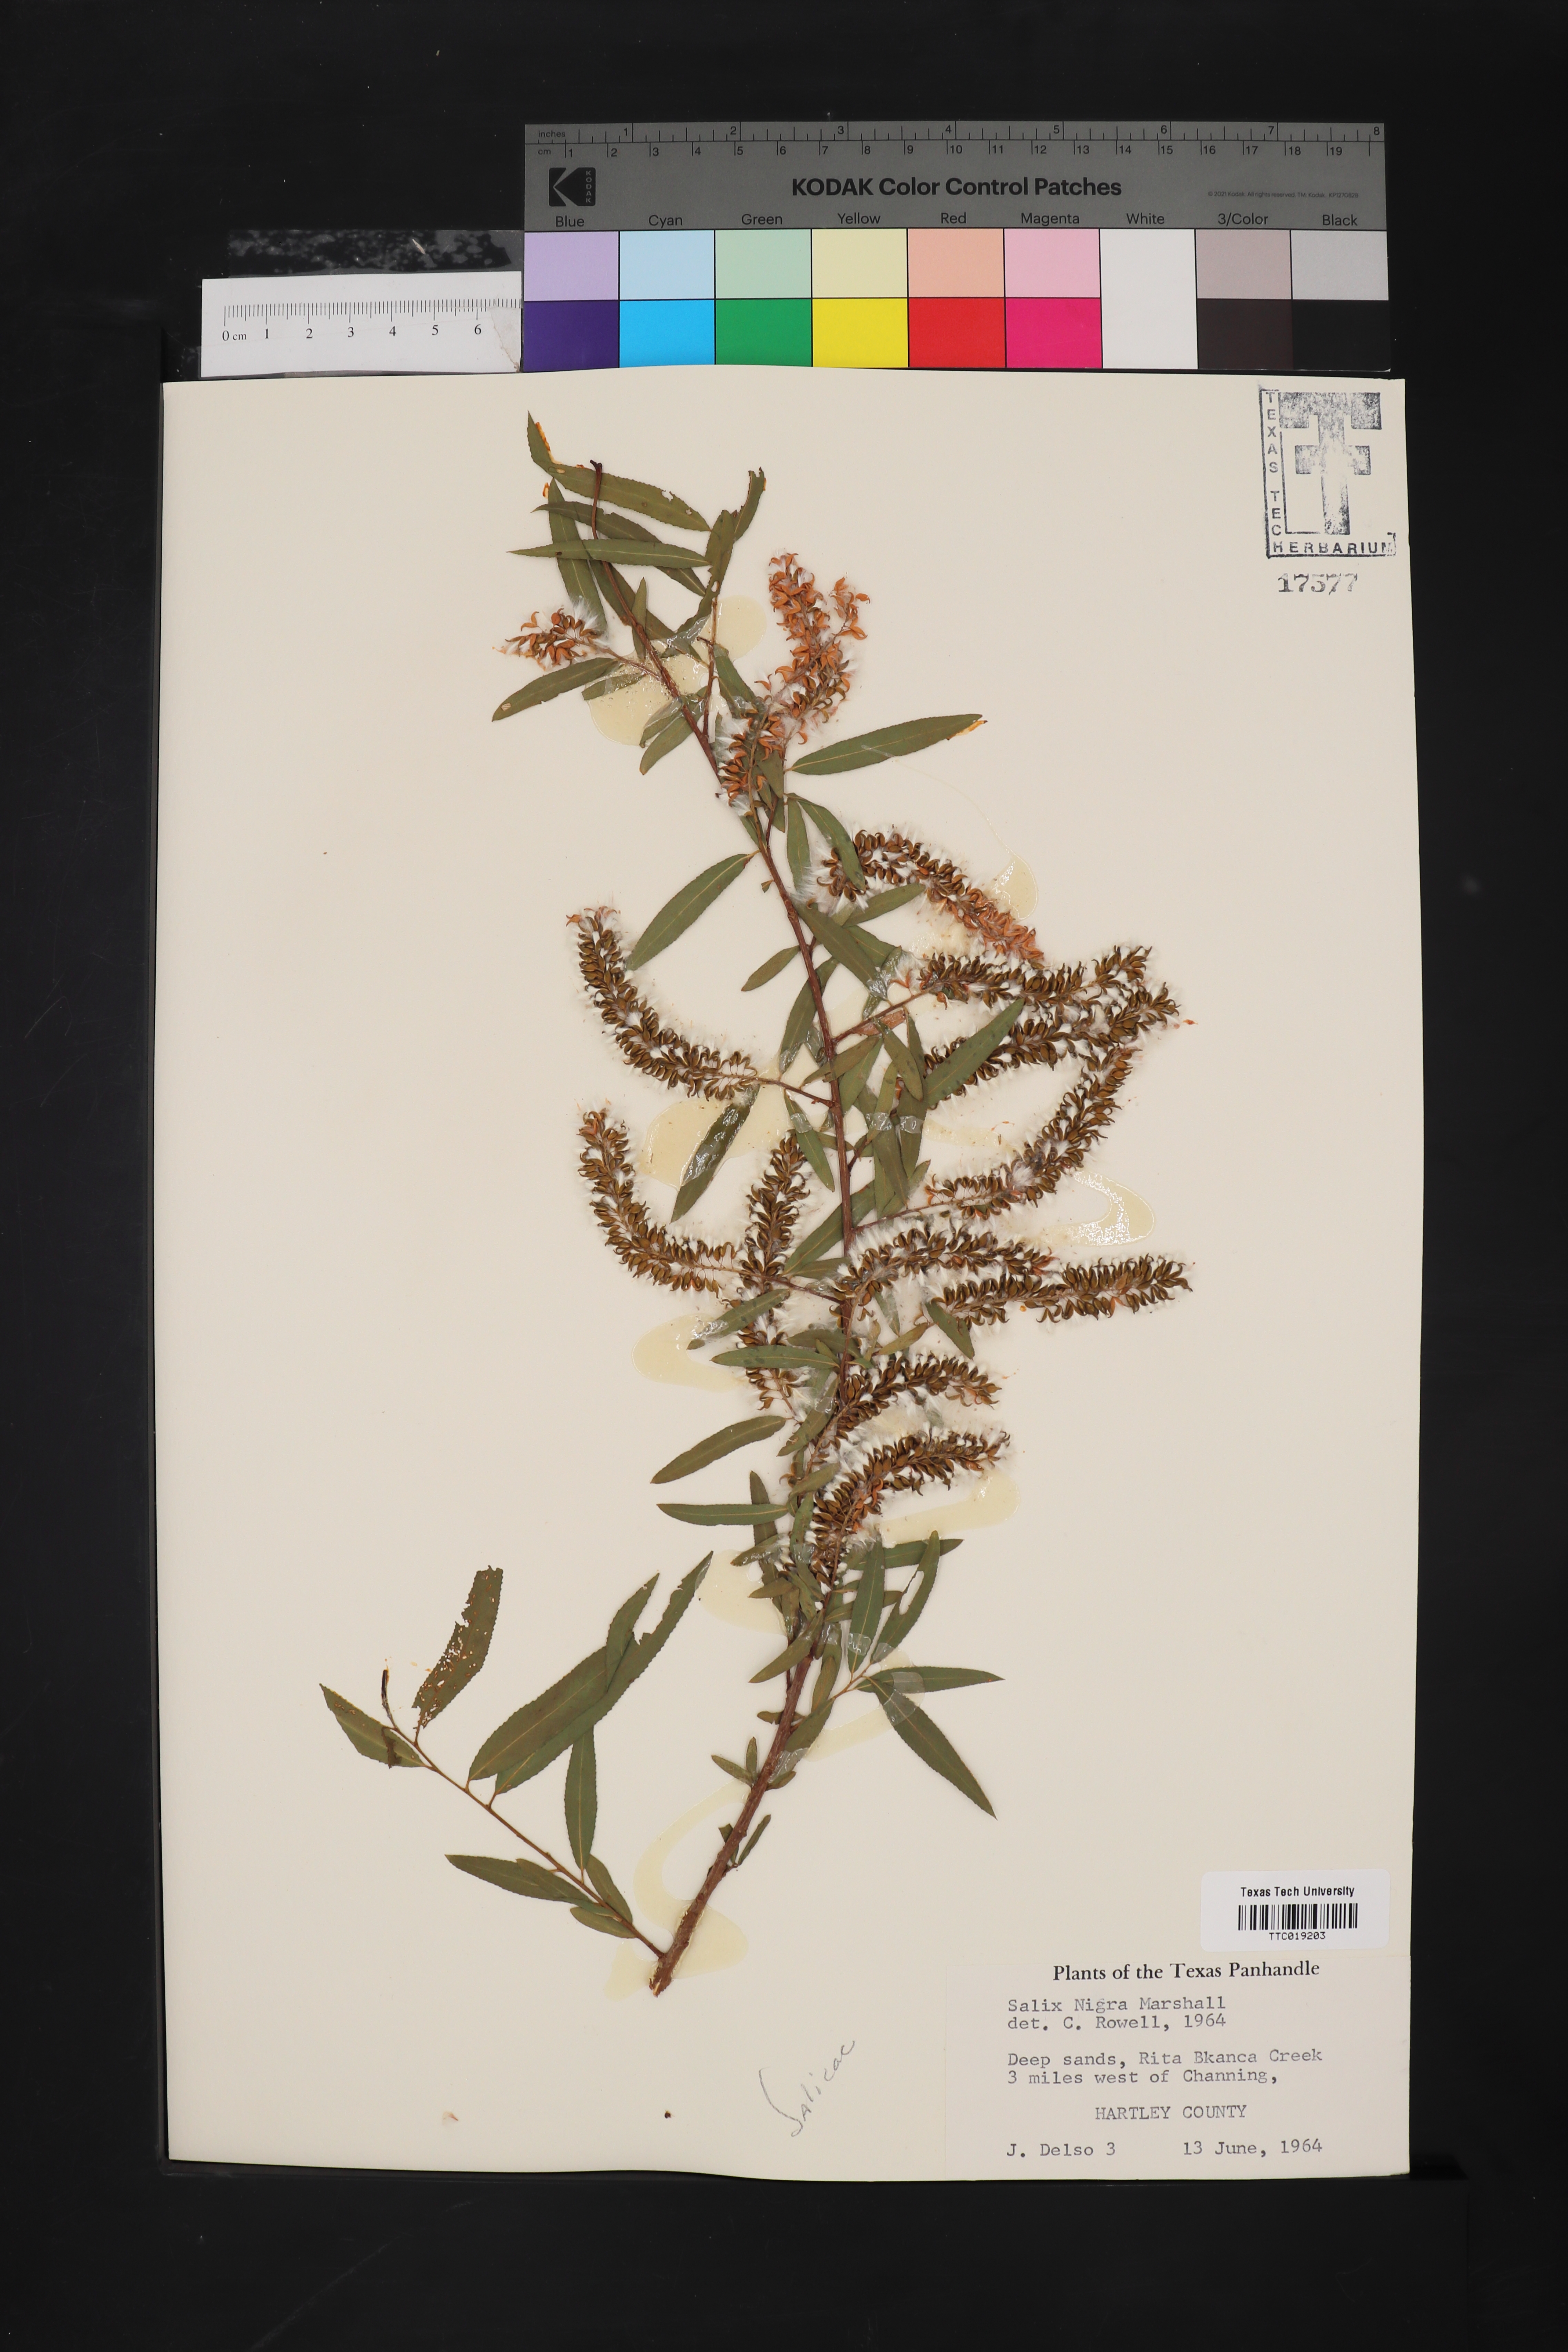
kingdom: Plantae
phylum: Tracheophyta
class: Magnoliopsida
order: Malpighiales
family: Salicaceae
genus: Salix
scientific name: Salix nigra
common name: Black willow
